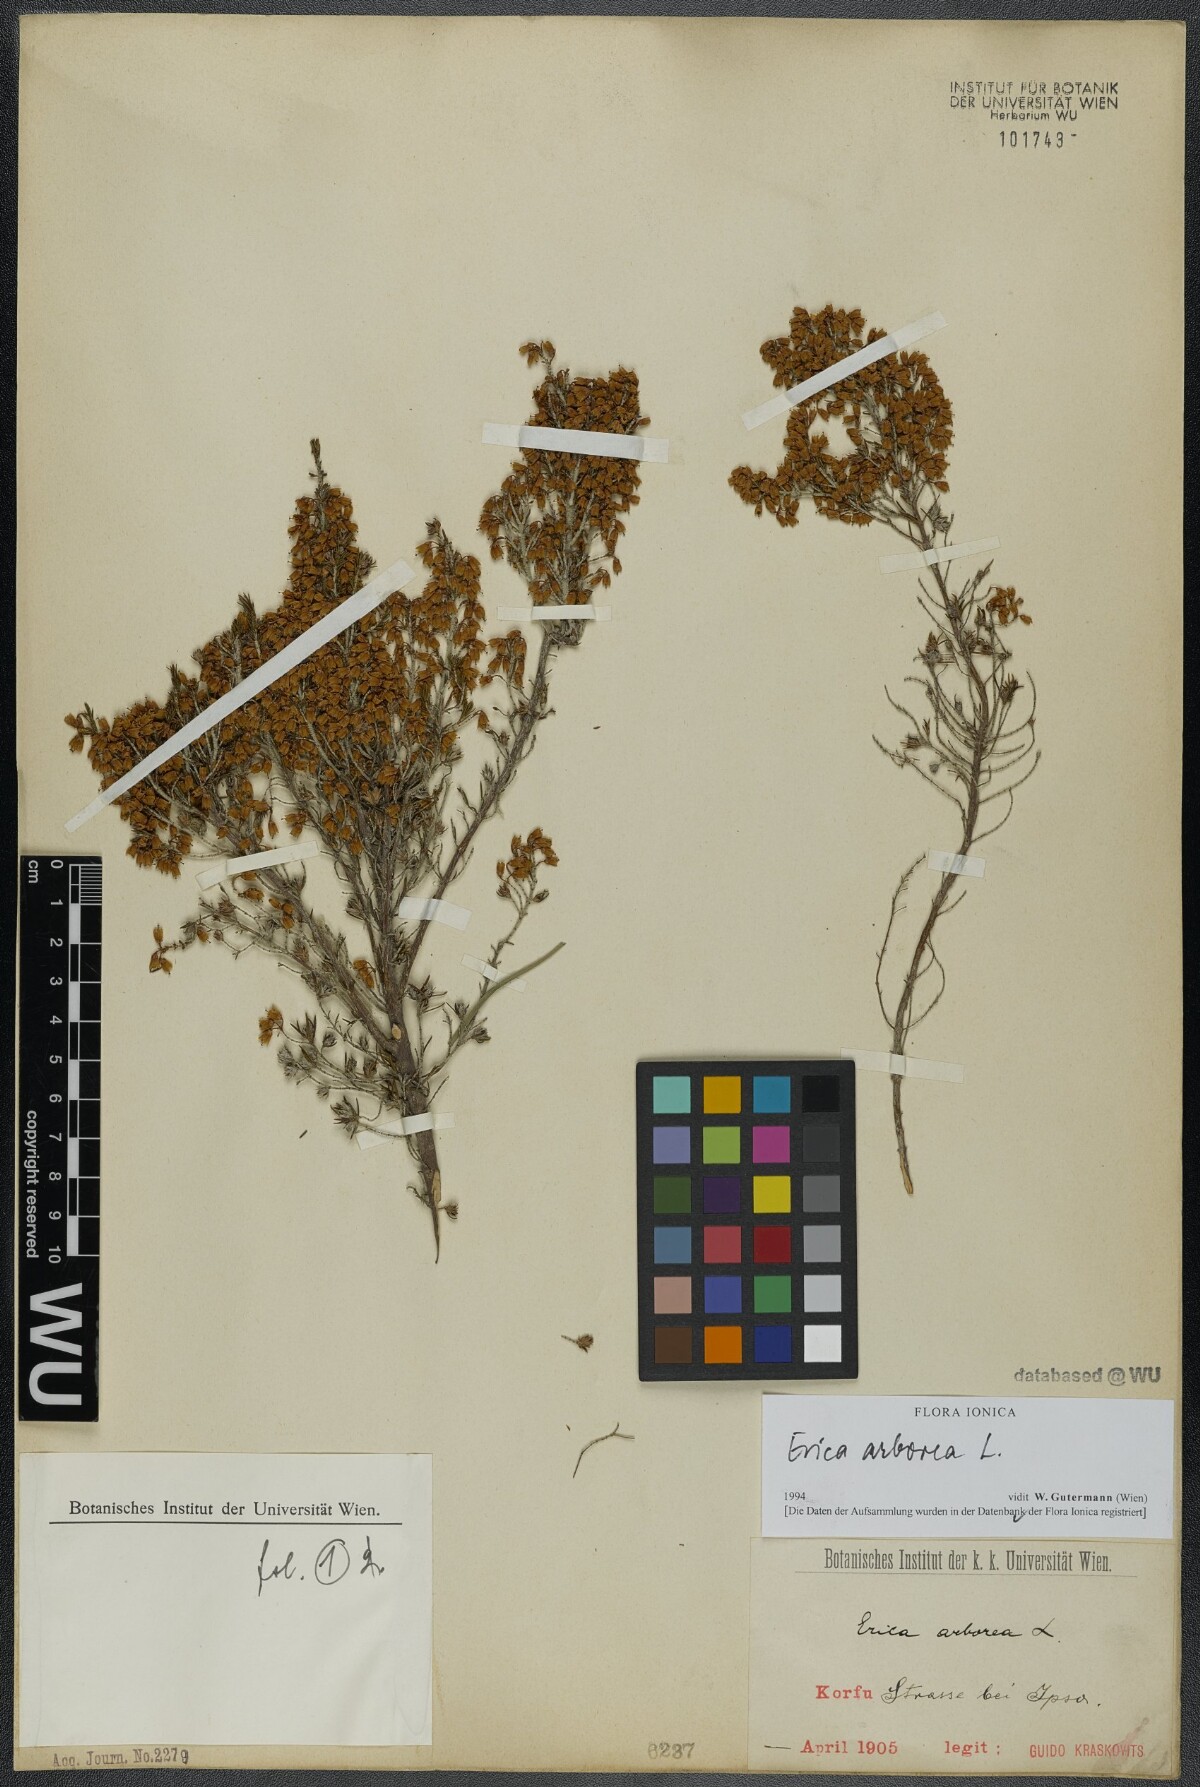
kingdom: Plantae
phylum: Tracheophyta
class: Magnoliopsida
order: Ericales
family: Ericaceae
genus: Erica
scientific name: Erica arborea
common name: Tree heath
